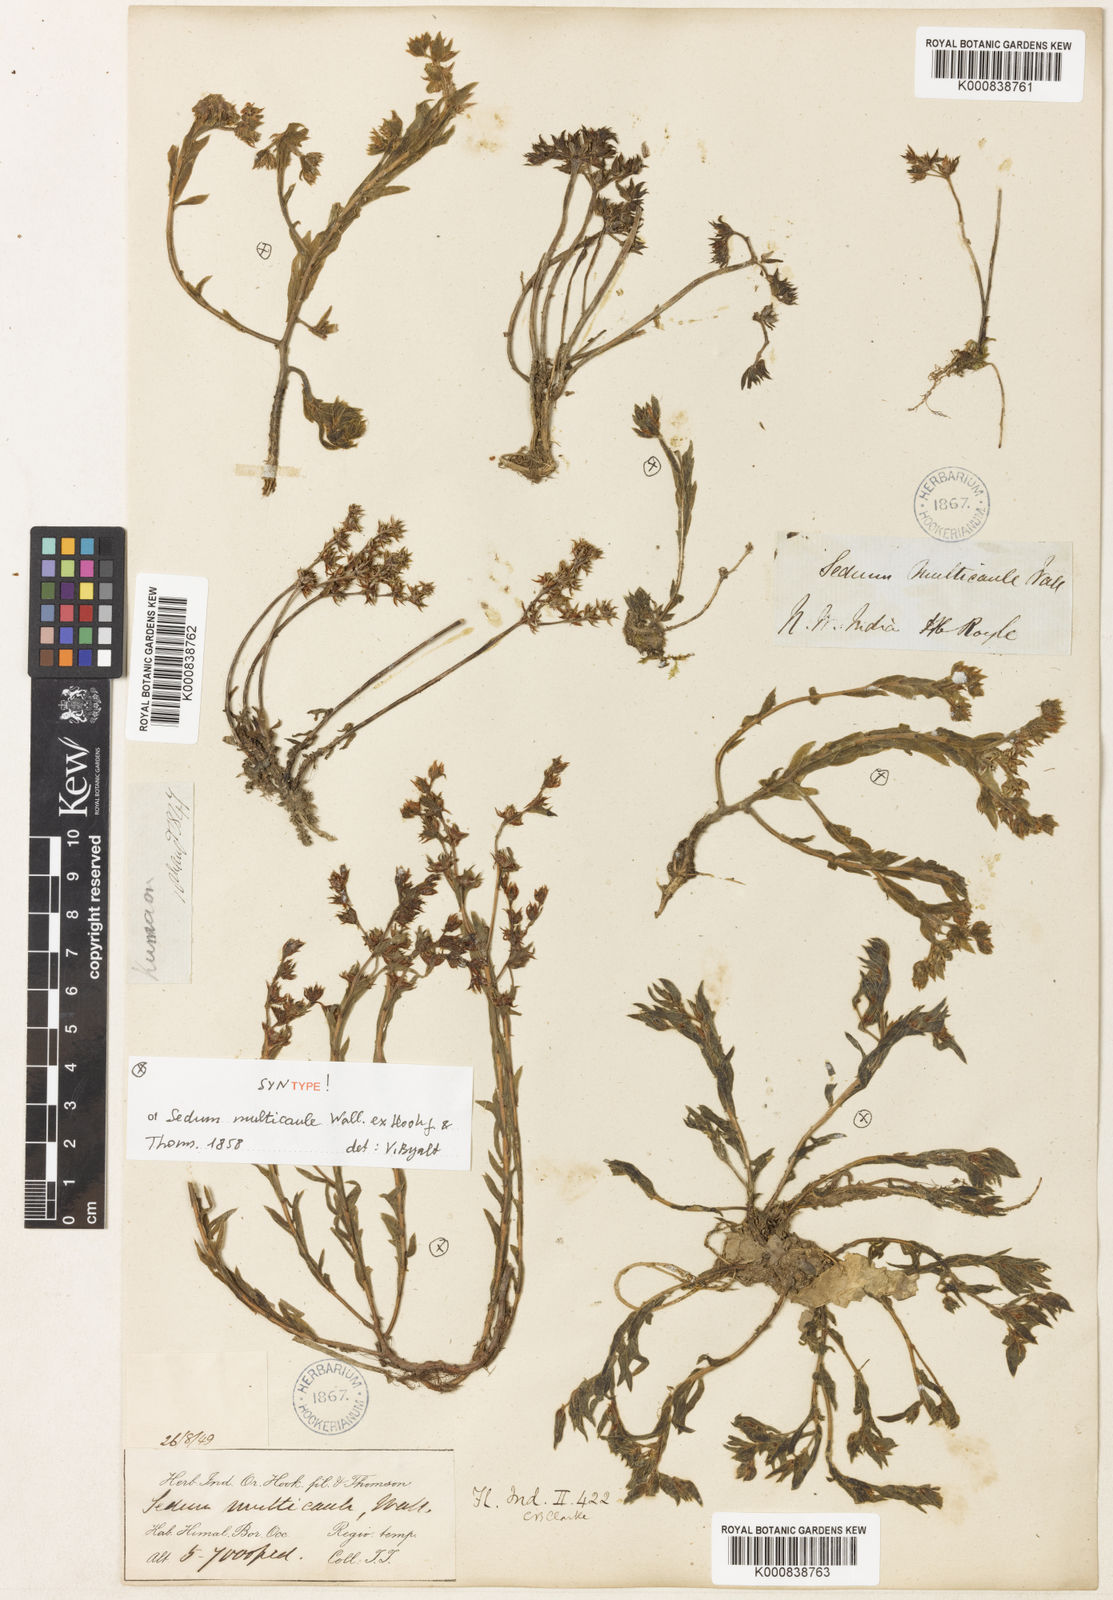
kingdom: Plantae
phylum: Tracheophyta
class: Magnoliopsida
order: Saxifragales
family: Crassulaceae
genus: Sedum
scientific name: Sedum
